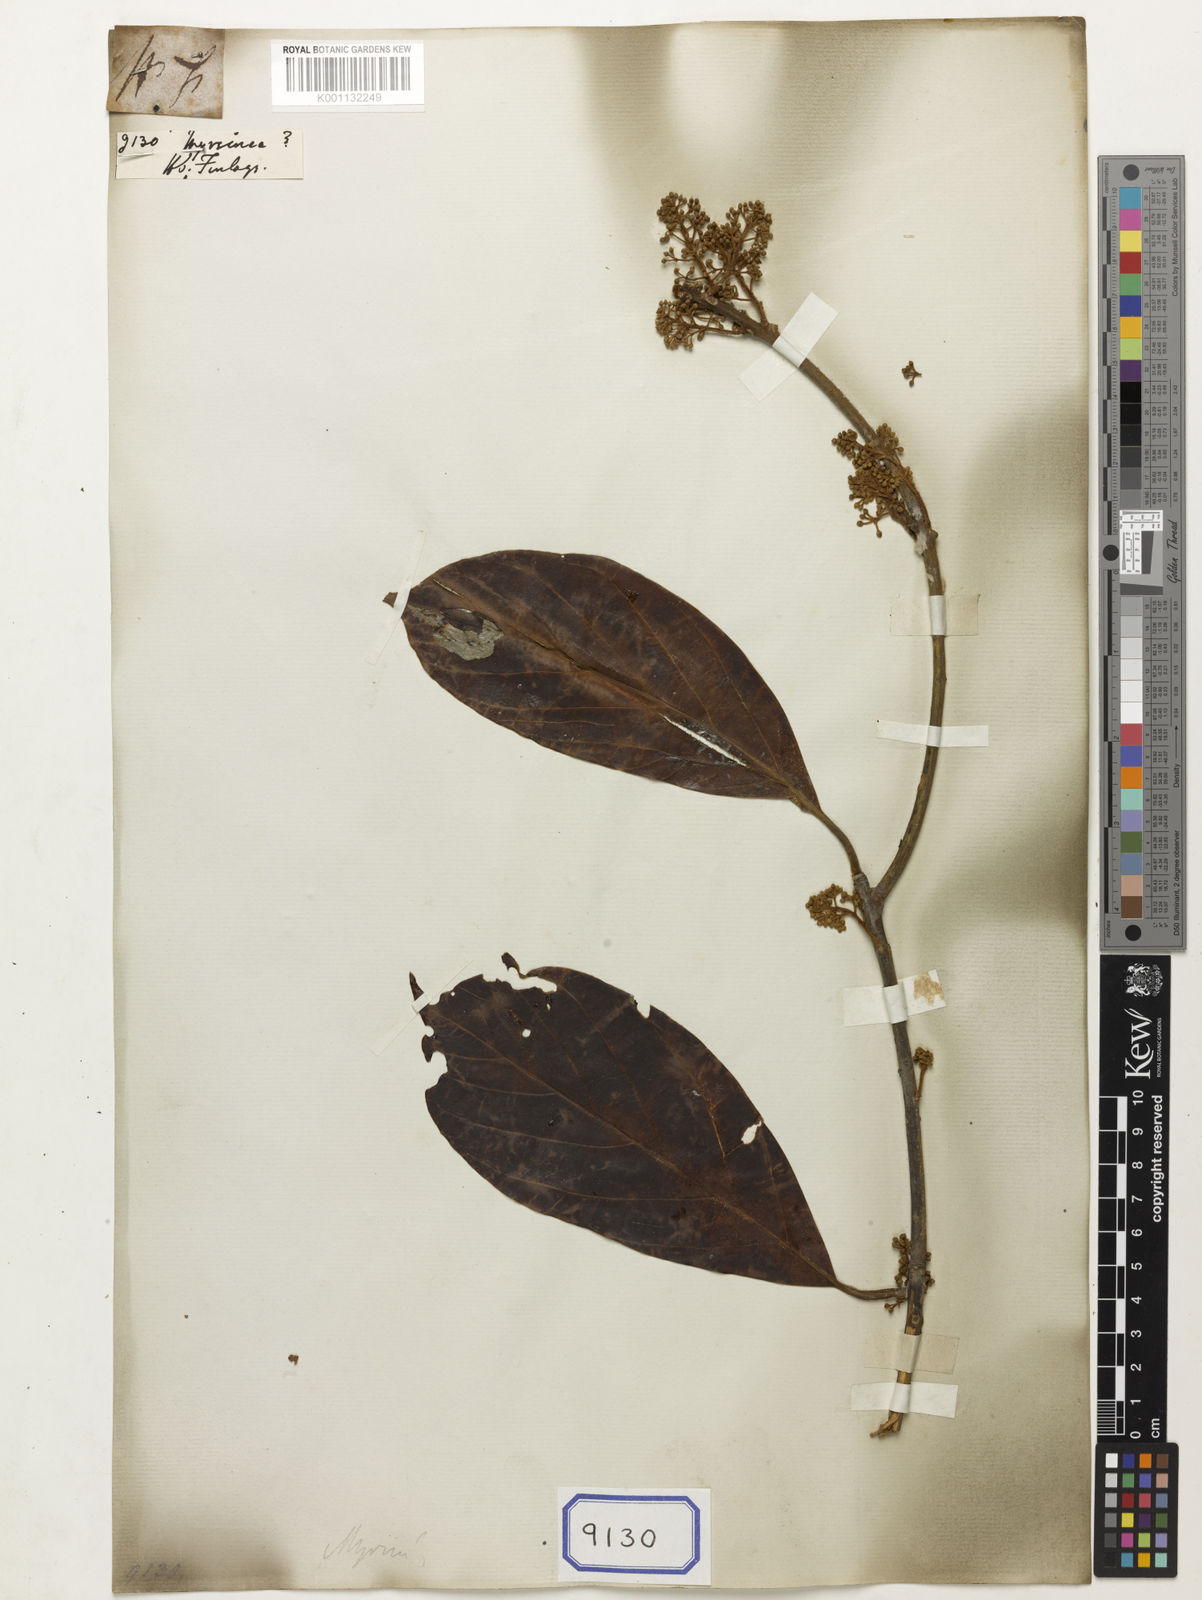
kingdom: Plantae
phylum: Tracheophyta
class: Magnoliopsida
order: Ericales
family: Primulaceae
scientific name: Primulaceae
